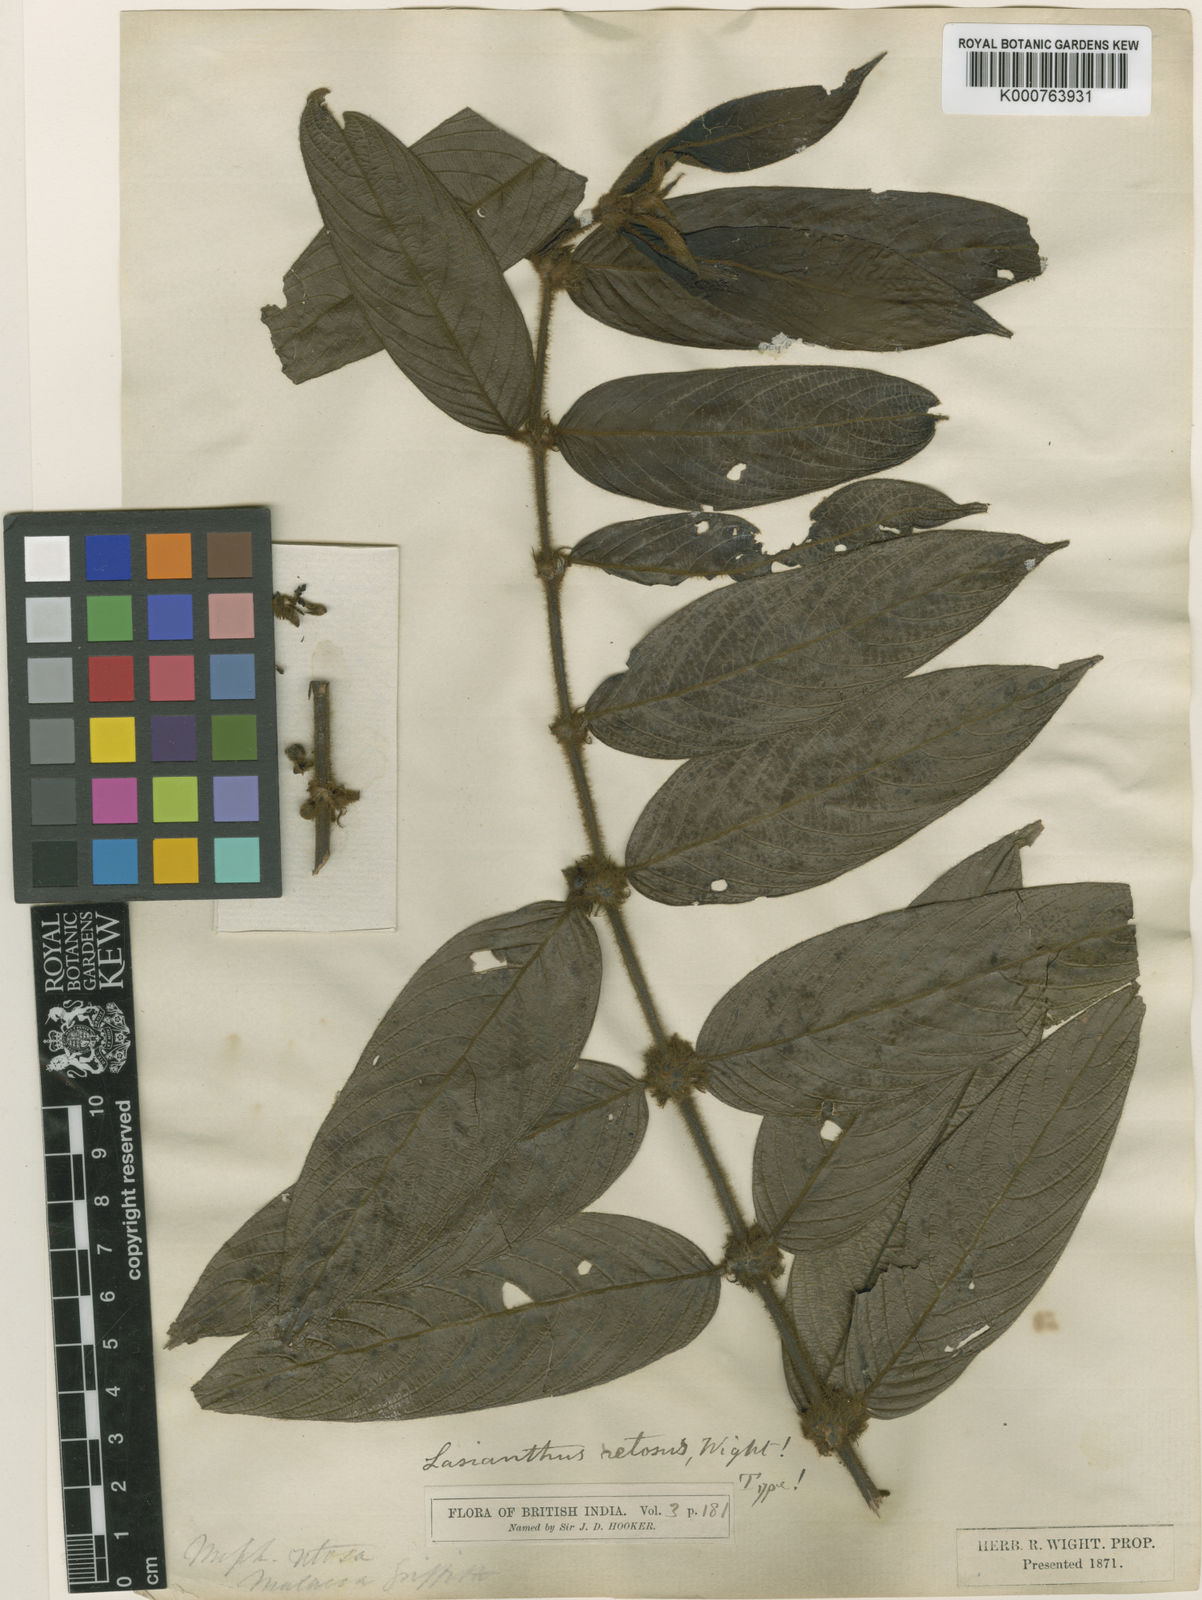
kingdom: Plantae
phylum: Tracheophyta
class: Magnoliopsida
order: Gentianales
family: Rubiaceae
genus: Lasianthus
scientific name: Lasianthus pilosus
